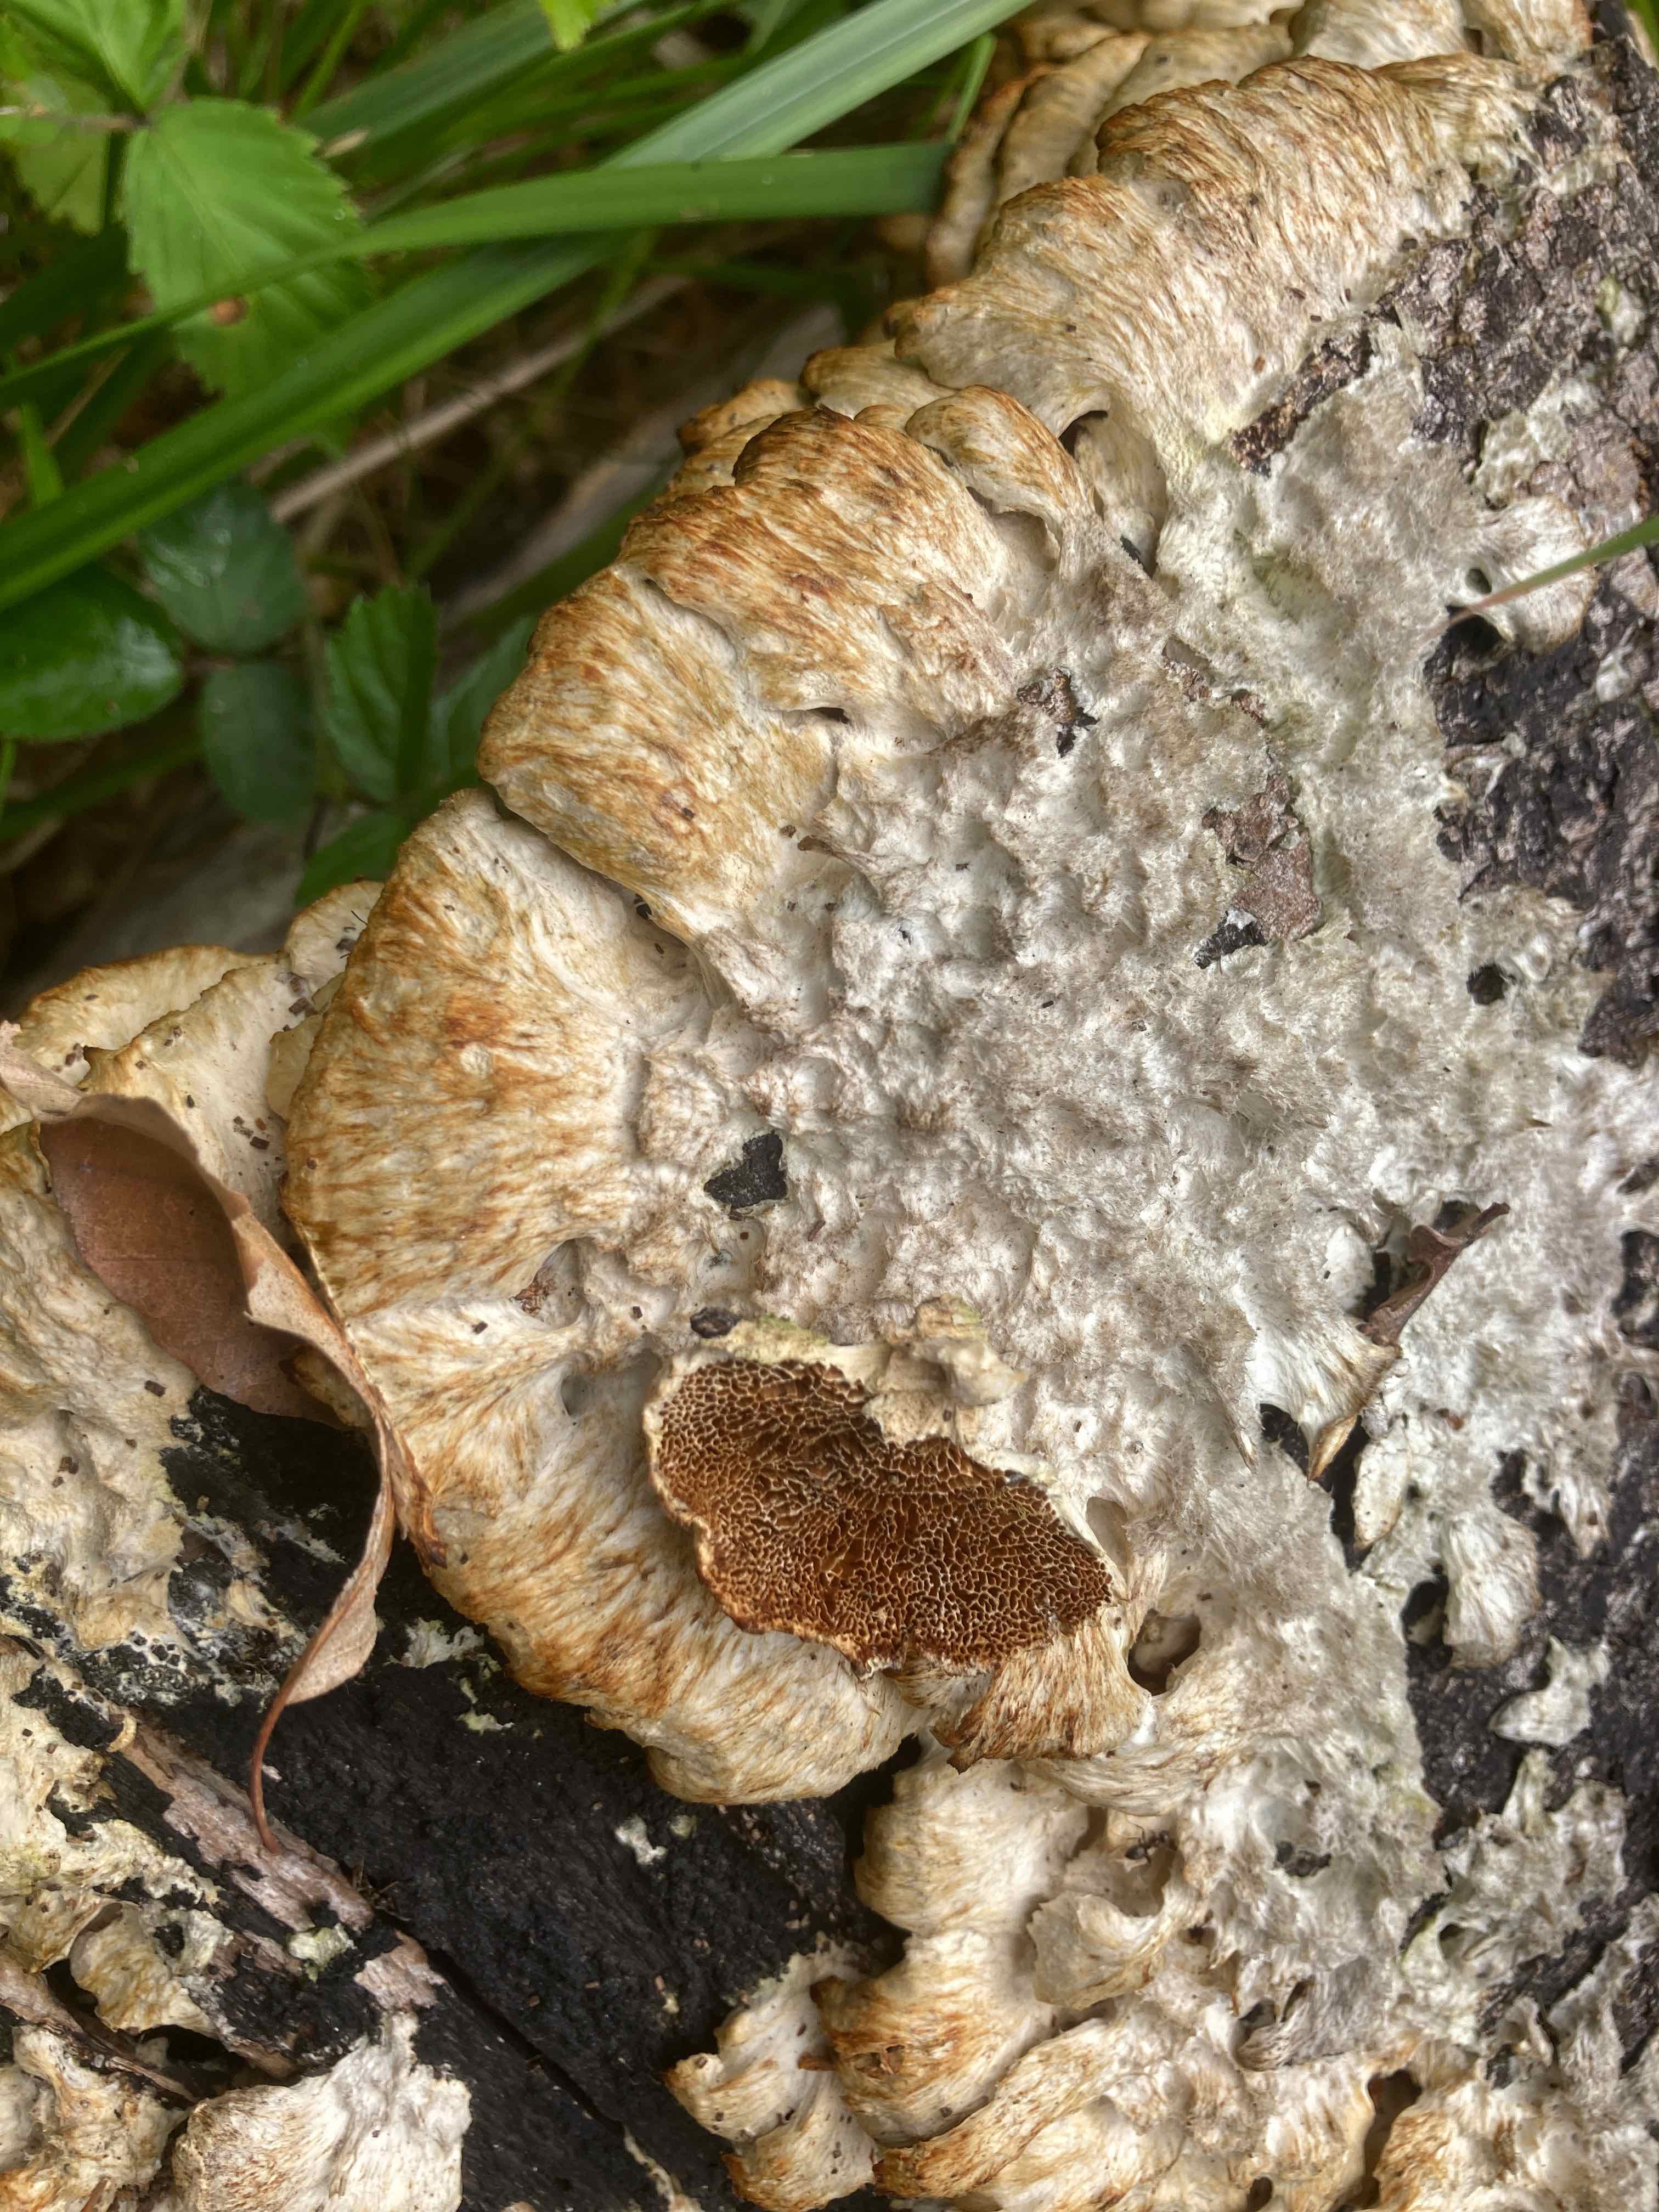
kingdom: Fungi
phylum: Basidiomycota
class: Agaricomycetes
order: Polyporales
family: Irpicaceae
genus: Trametopsis
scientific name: Trametopsis cervina
